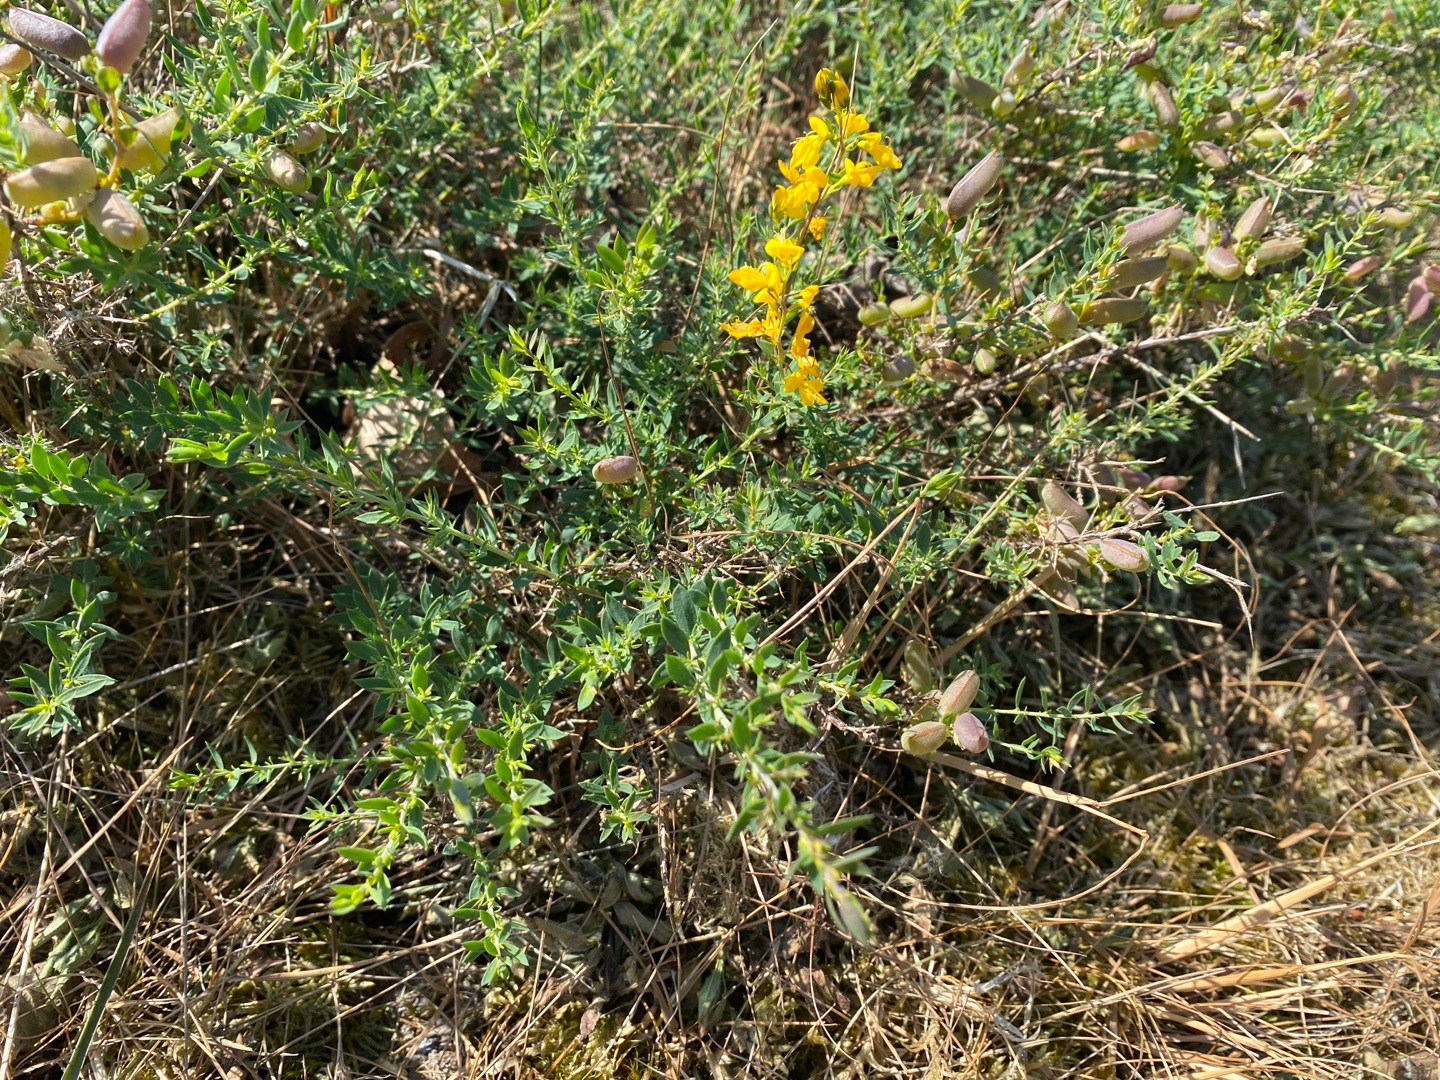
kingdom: Plantae
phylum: Tracheophyta
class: Magnoliopsida
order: Fabales
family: Fabaceae
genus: Genista
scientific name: Genista anglica
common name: Engelsk visse
